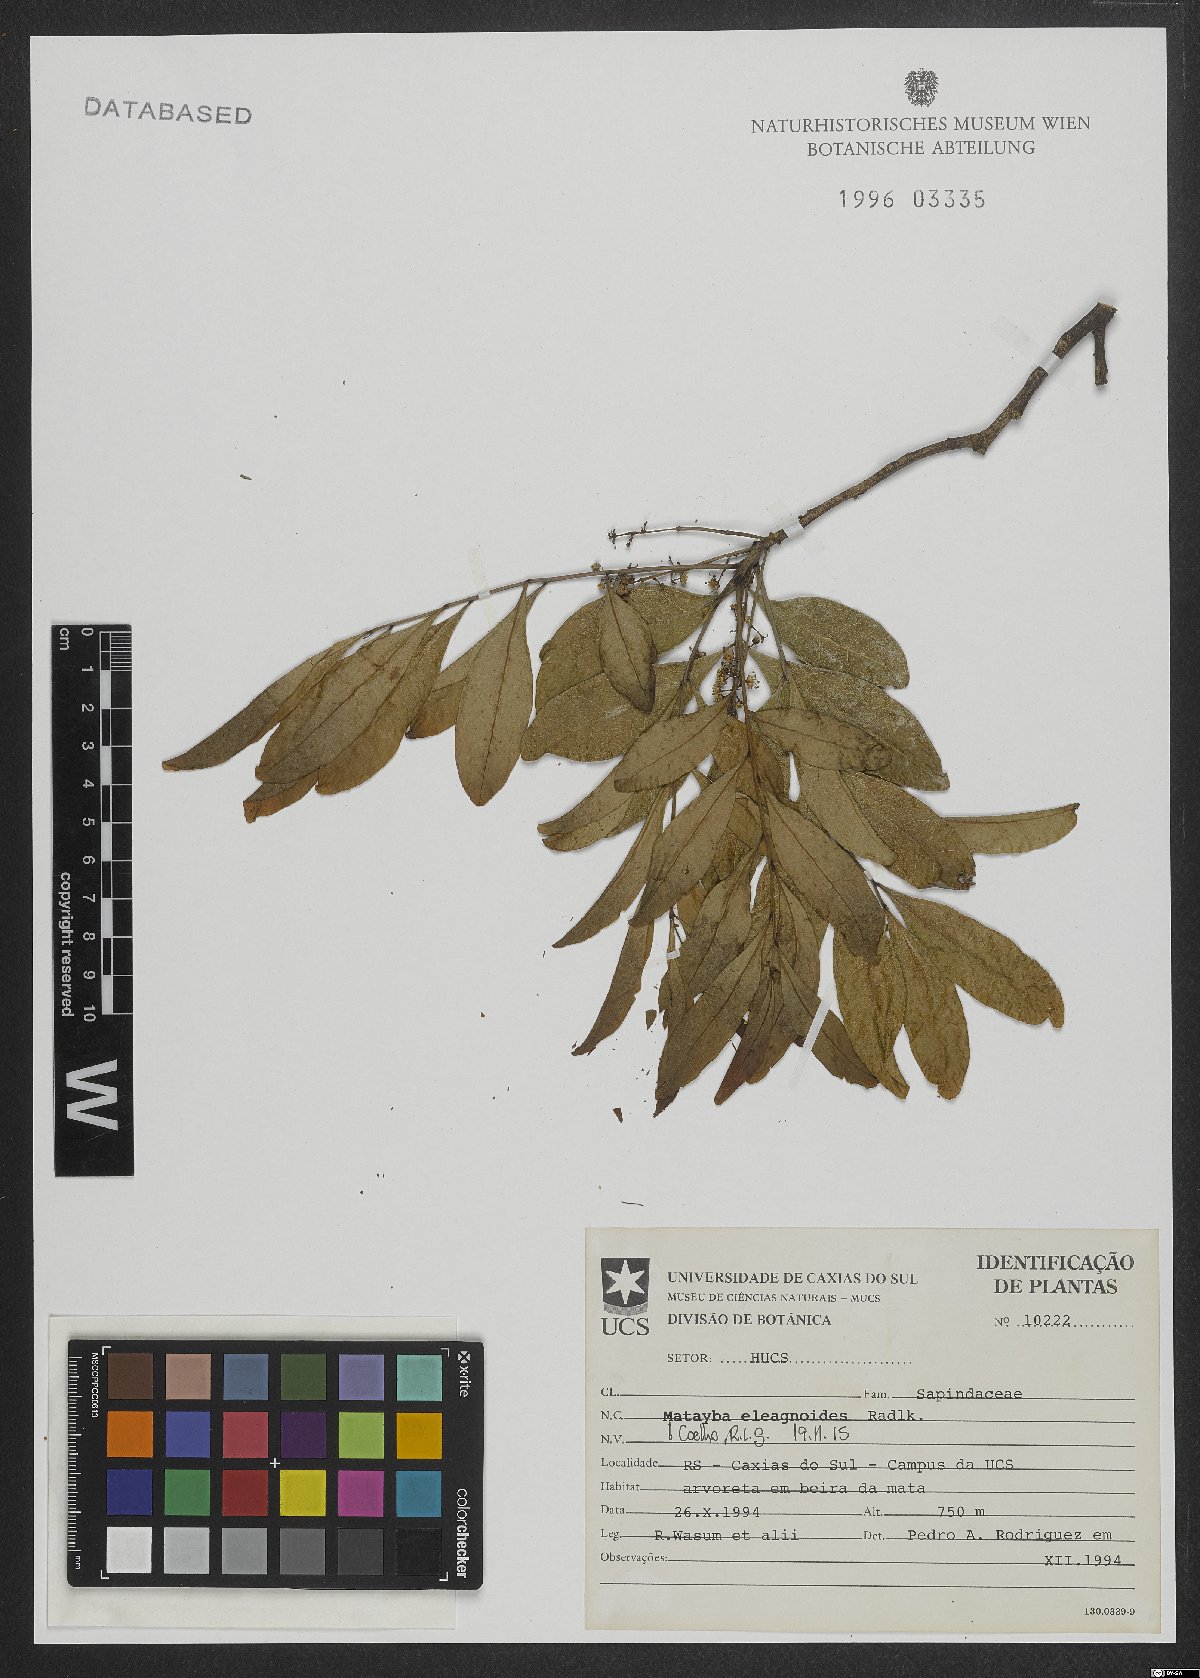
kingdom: Plantae
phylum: Tracheophyta
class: Magnoliopsida
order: Sapindales
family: Sapindaceae
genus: Matayba
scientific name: Matayba elaeagnoides
